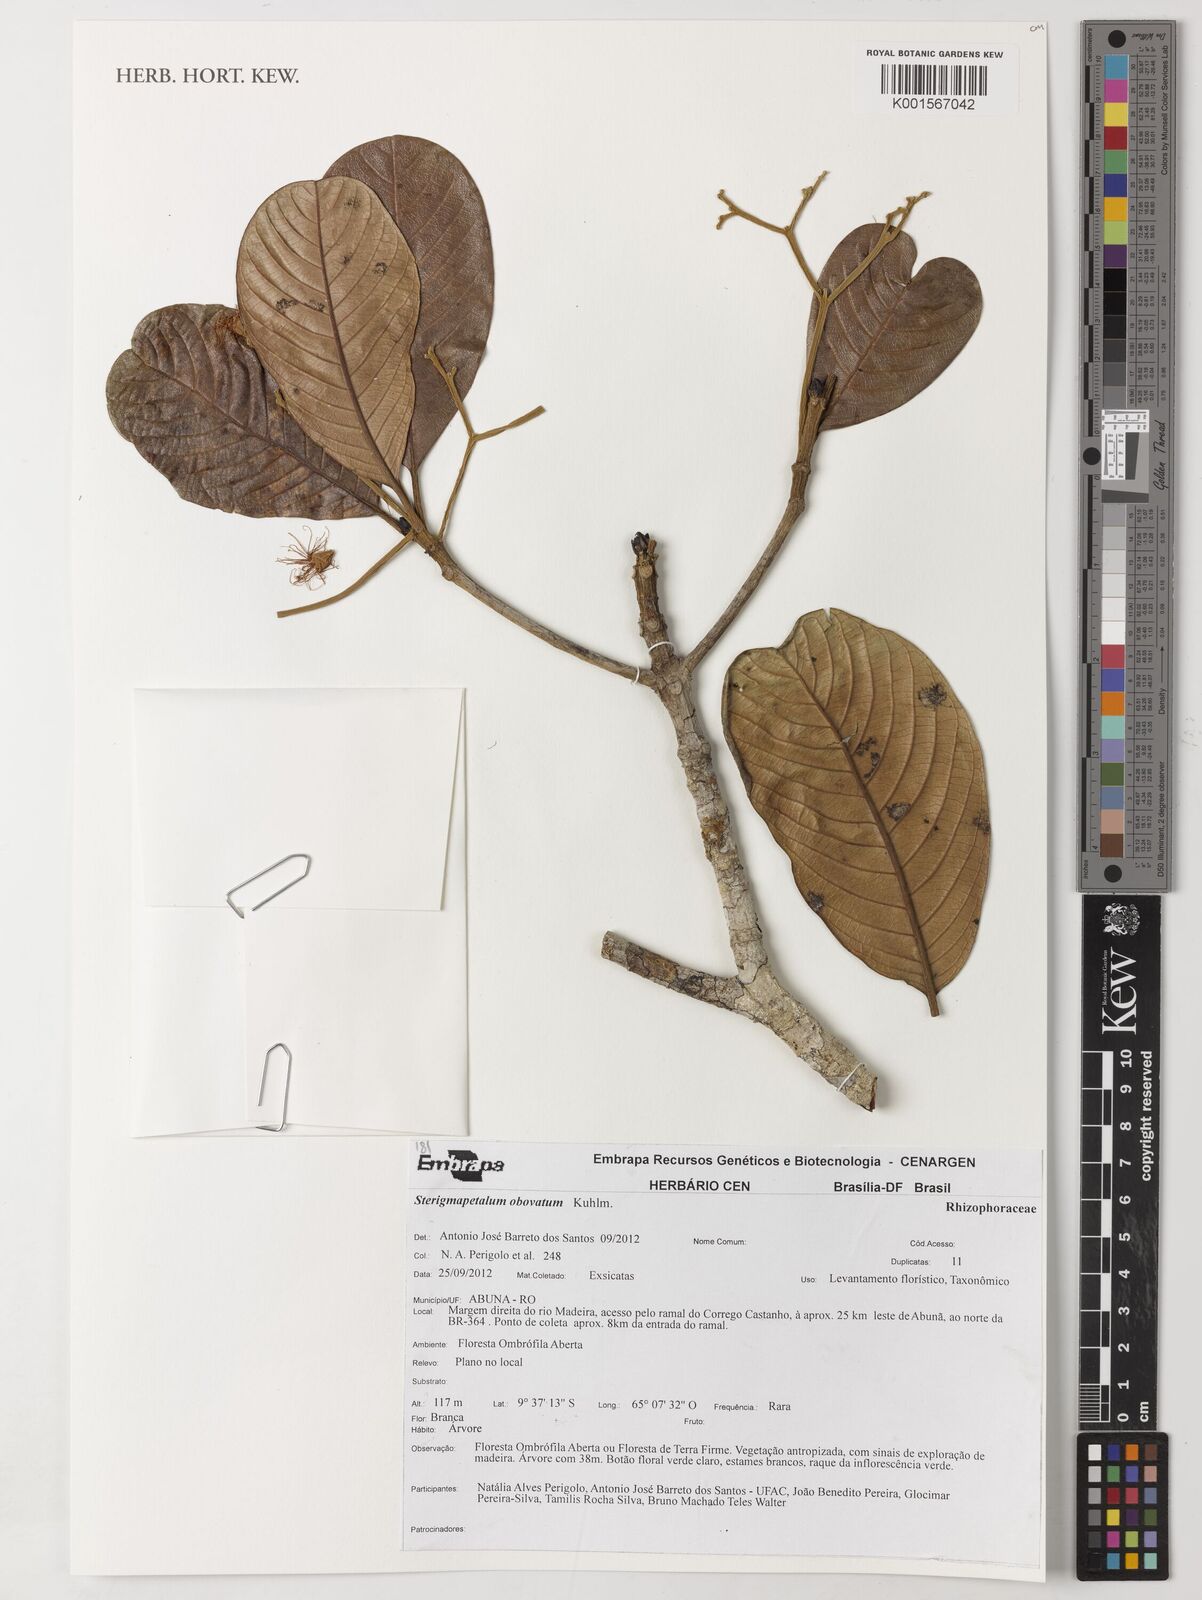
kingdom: Plantae
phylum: Tracheophyta
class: Magnoliopsida
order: Malpighiales
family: Rhizophoraceae
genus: Sterigmapetalum
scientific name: Sterigmapetalum obovatum
